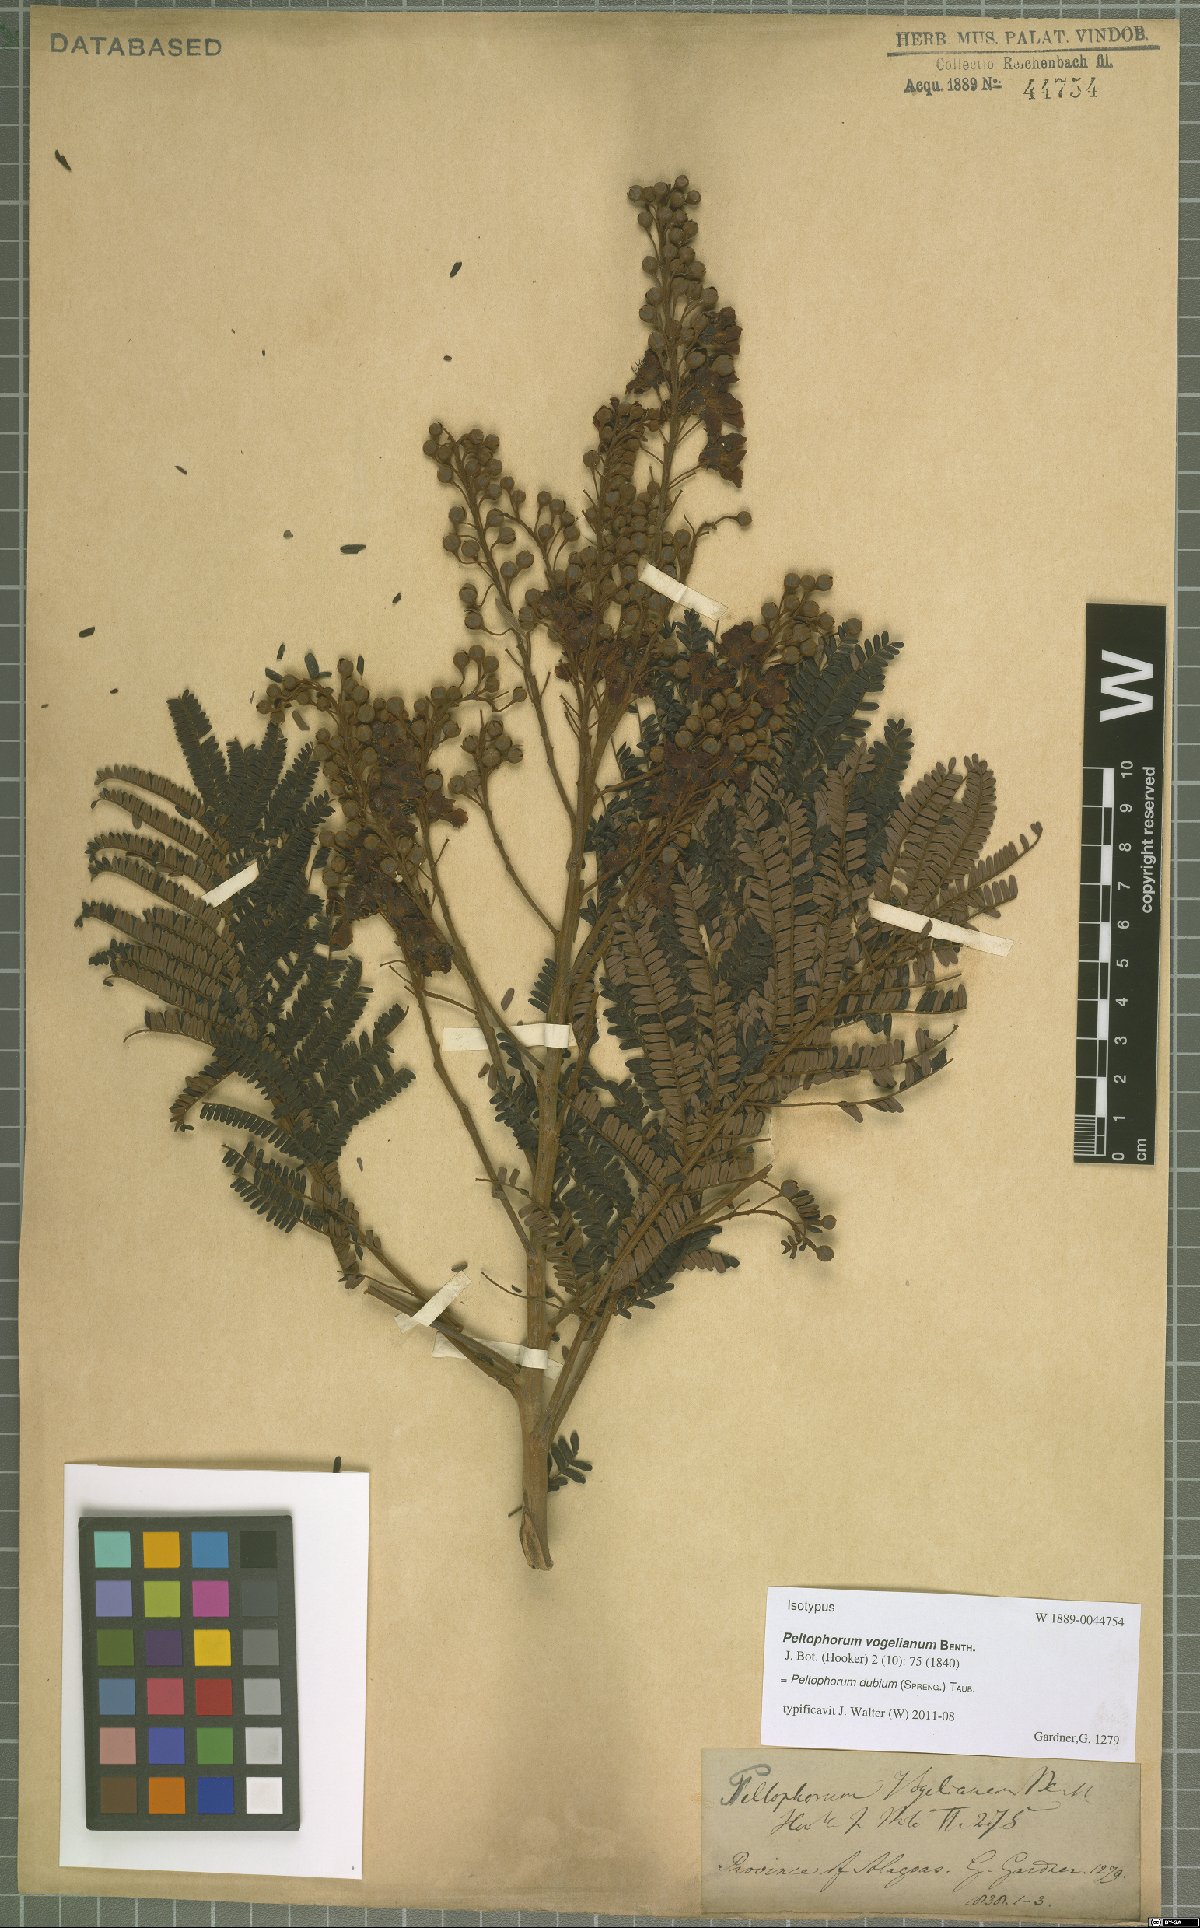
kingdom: Plantae
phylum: Tracheophyta
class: Magnoliopsida
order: Fabales
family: Fabaceae
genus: Peltophorum
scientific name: Peltophorum dubium
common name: Horsebush
